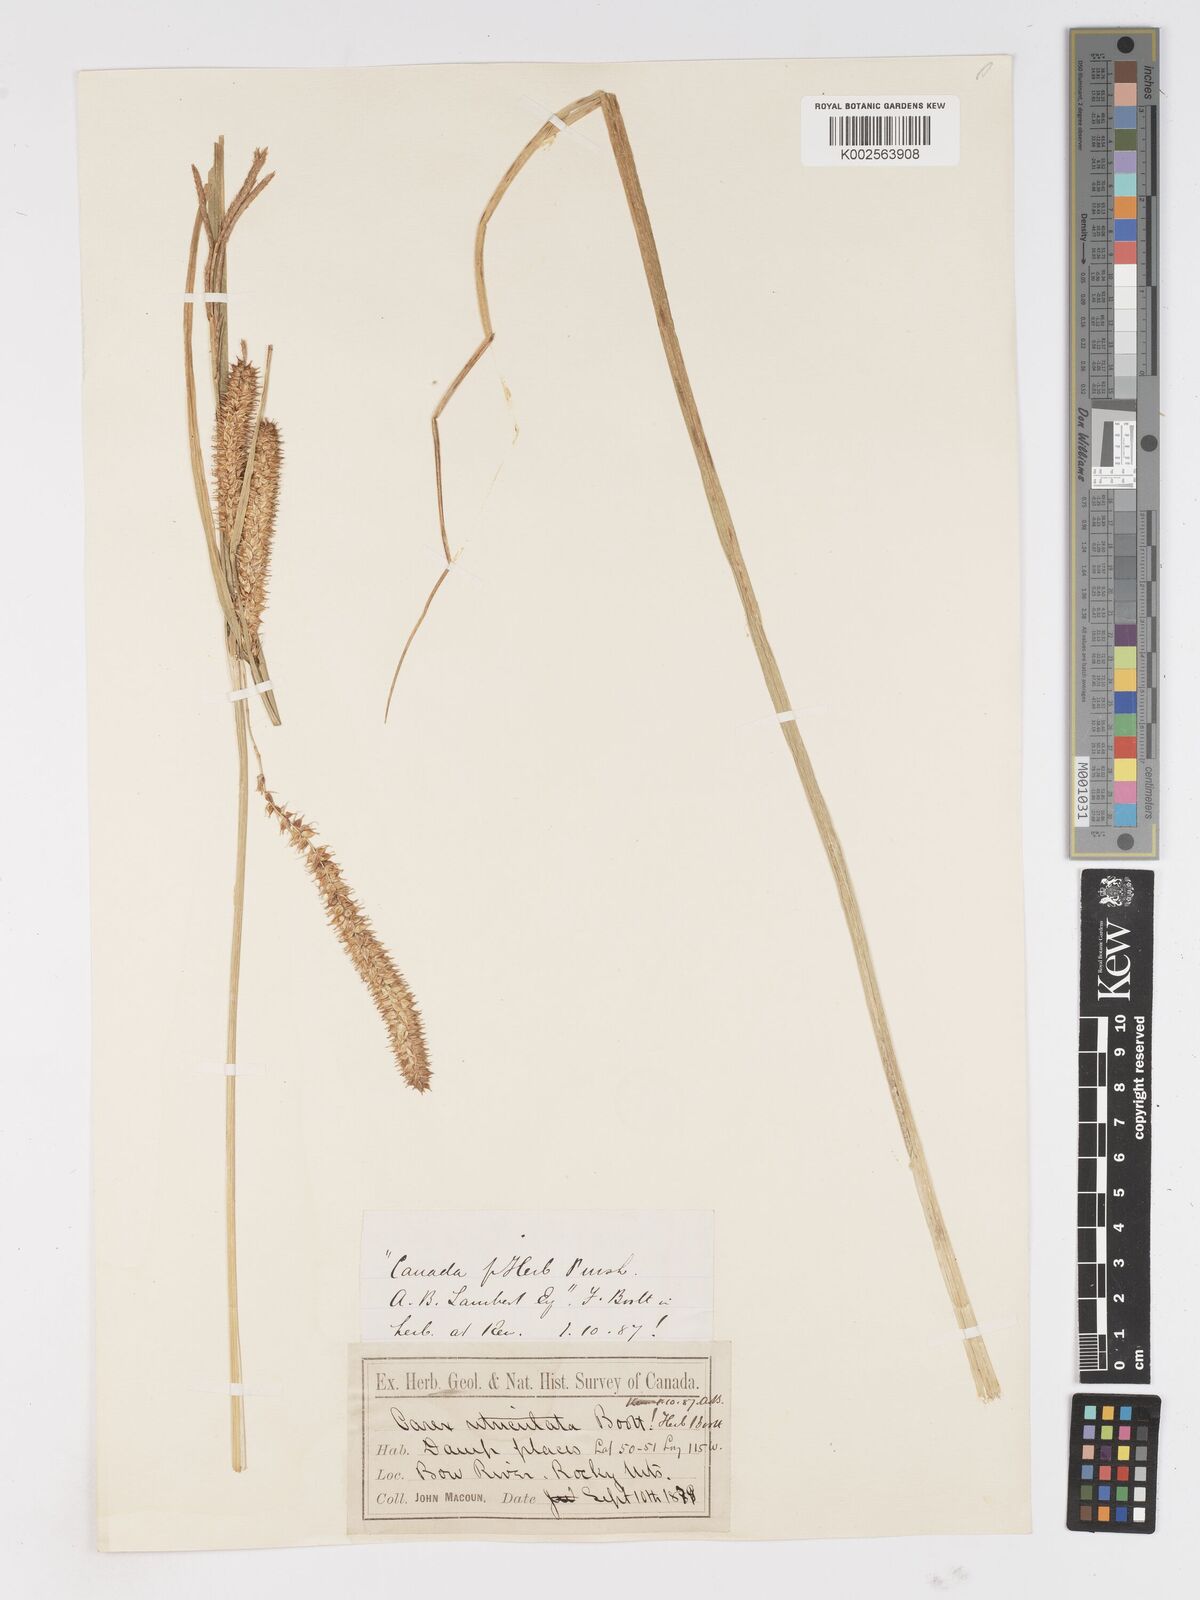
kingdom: Plantae
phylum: Tracheophyta
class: Liliopsida
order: Poales
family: Cyperaceae
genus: Carex
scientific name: Carex rostrata
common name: Bottle sedge
